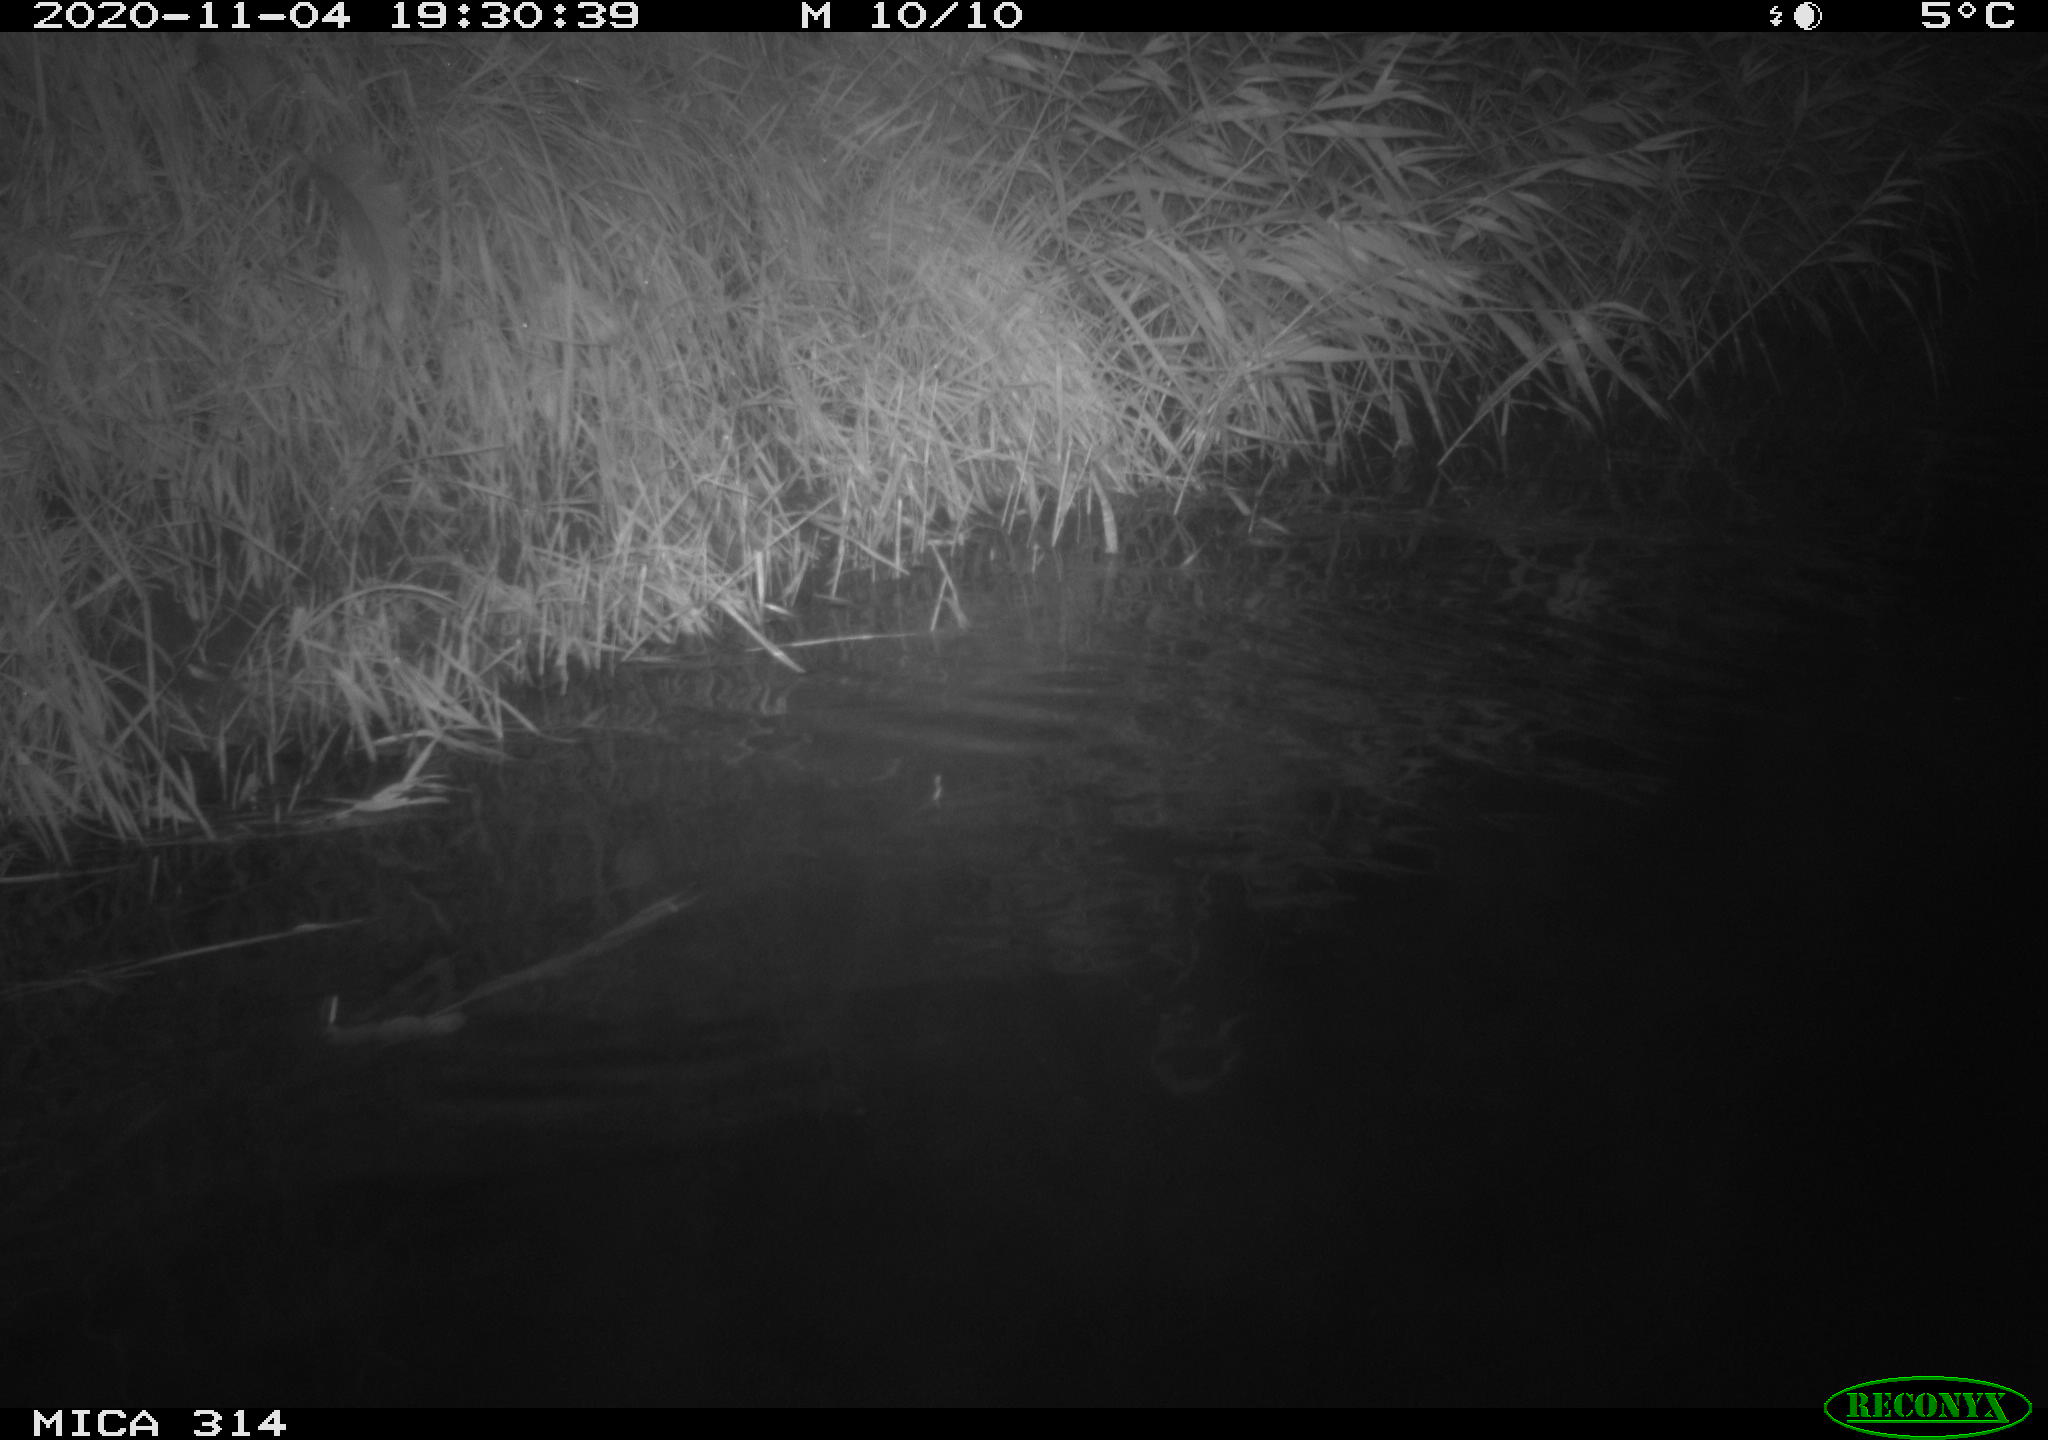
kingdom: Animalia
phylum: Chordata
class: Mammalia
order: Rodentia
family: Muridae
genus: Rattus
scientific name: Rattus norvegicus
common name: Brown rat
